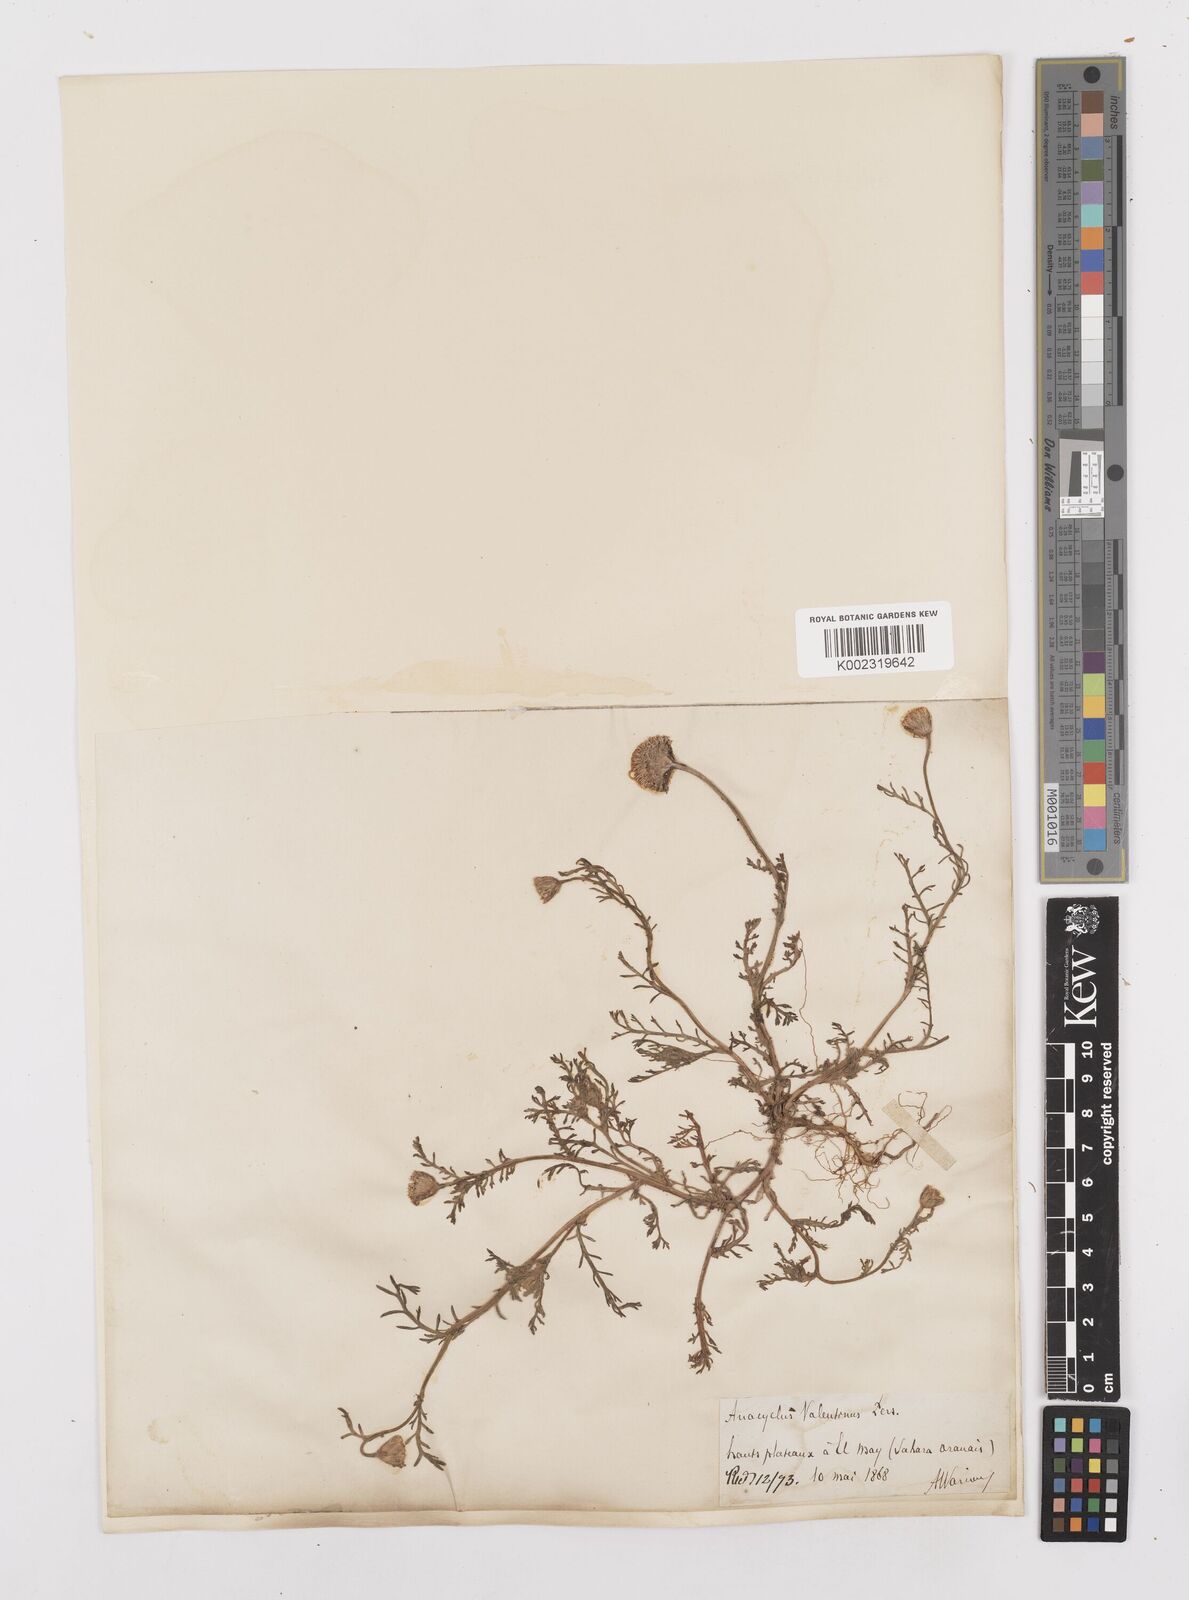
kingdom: Plantae
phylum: Tracheophyta
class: Magnoliopsida
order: Asterales
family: Asteraceae
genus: Anacyclus
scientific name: Anacyclus valentinus
